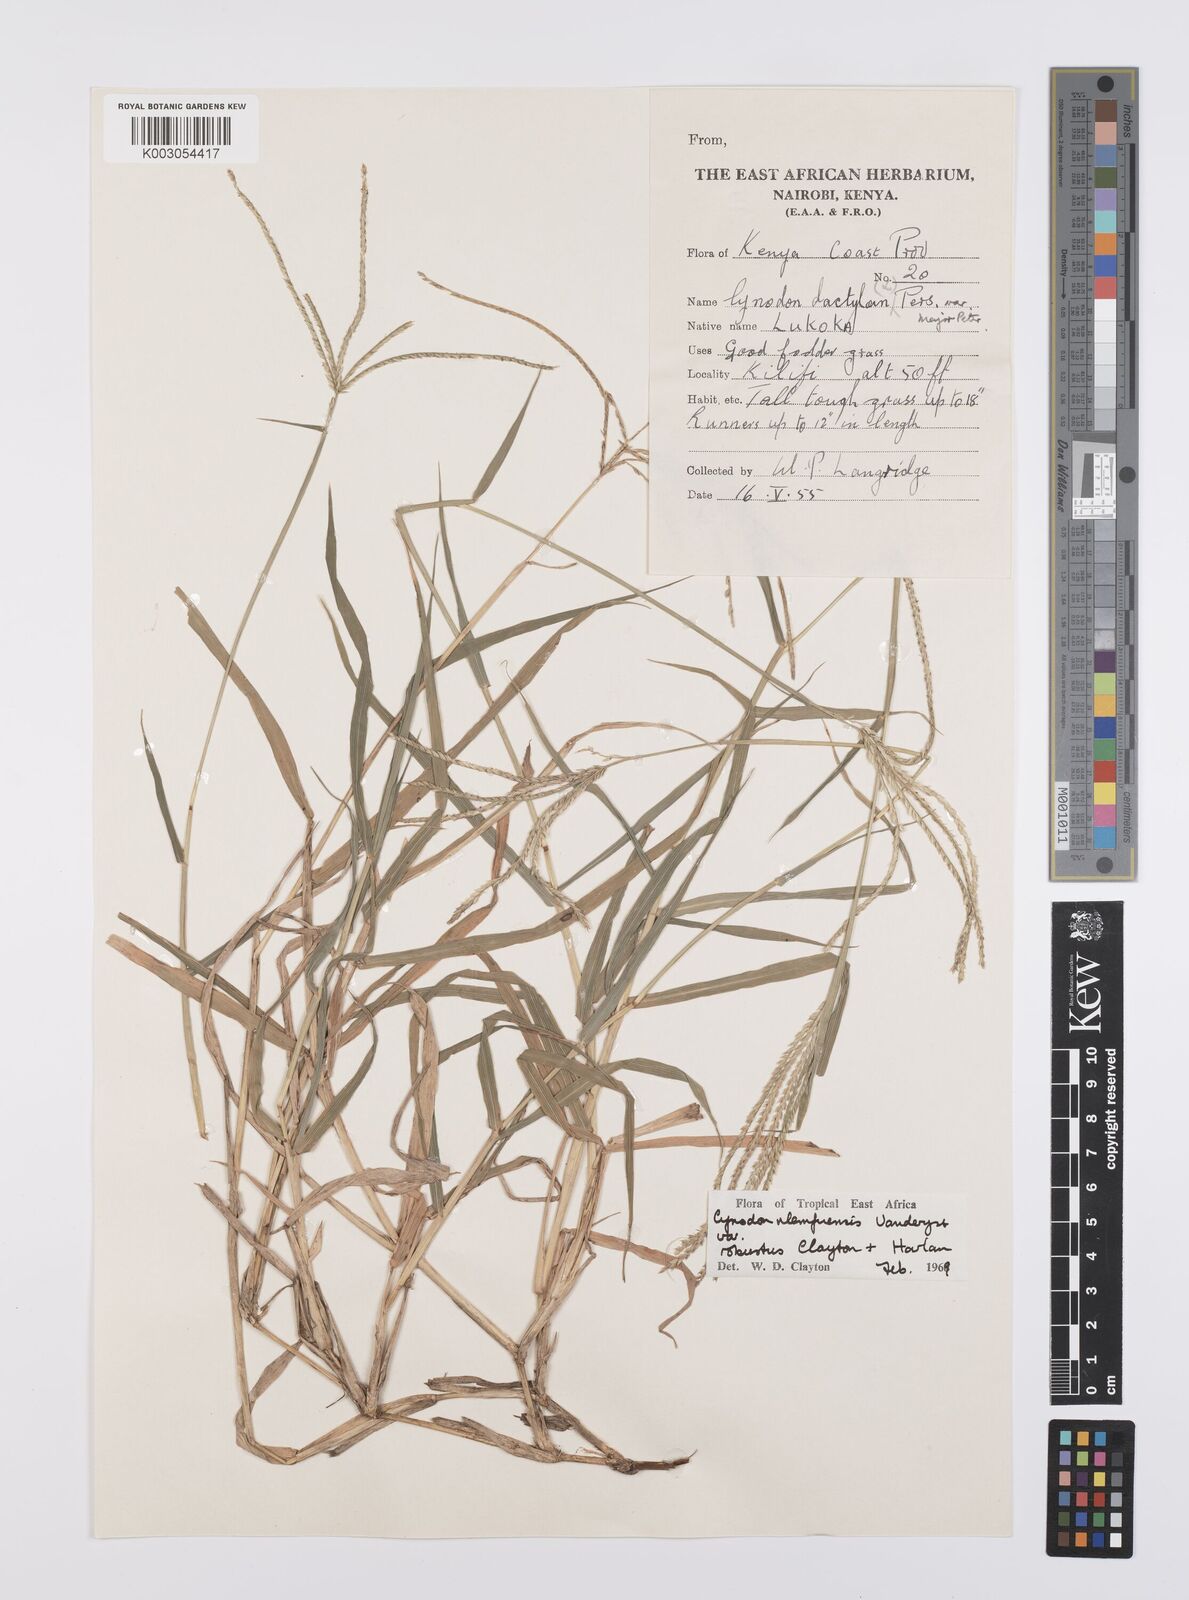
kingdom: Plantae
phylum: Tracheophyta
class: Liliopsida
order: Poales
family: Poaceae
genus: Cynodon
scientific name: Cynodon nlemfuensis
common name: African bermudagrass
